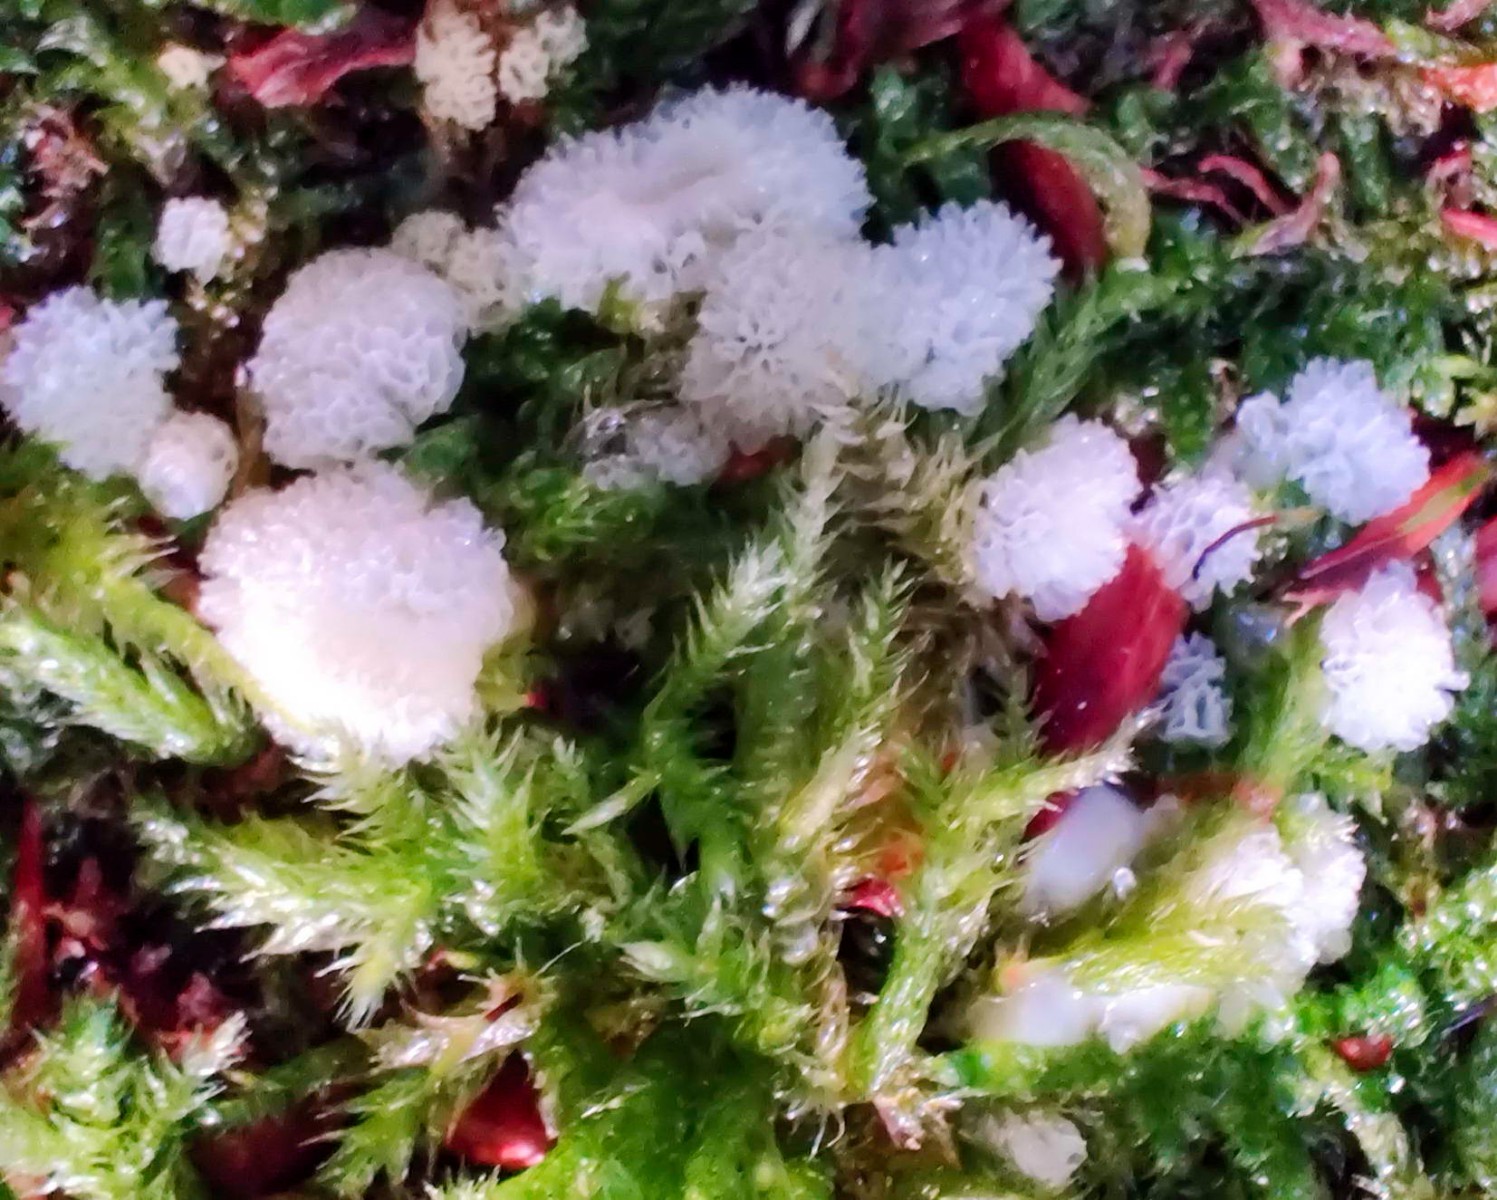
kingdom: Protozoa
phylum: Mycetozoa
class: Protosteliomycetes
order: Ceratiomyxales
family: Ceratiomyxaceae
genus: Ceratiomyxa
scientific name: Ceratiomyxa fruticulosa
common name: Honeycomb coral slime mold
